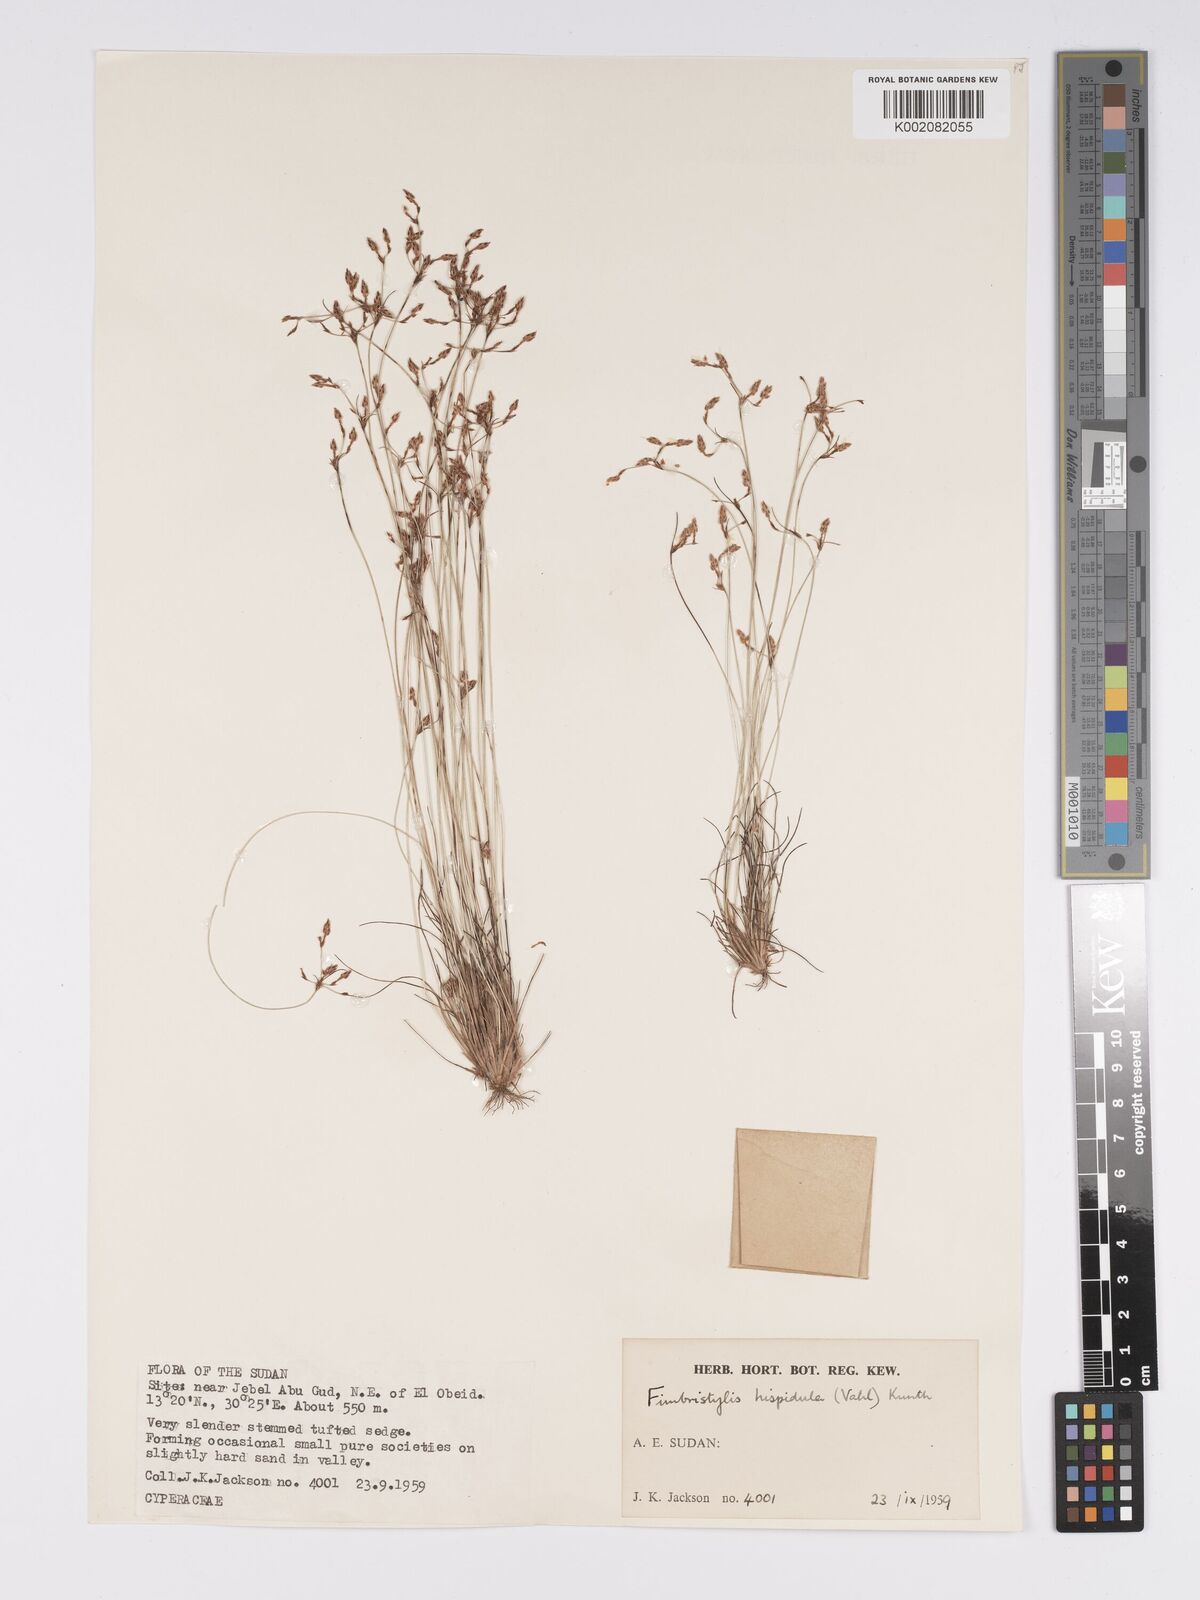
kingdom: Plantae
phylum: Tracheophyta
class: Liliopsida
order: Poales
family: Cyperaceae
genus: Bulbostylis
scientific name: Bulbostylis hispidula
